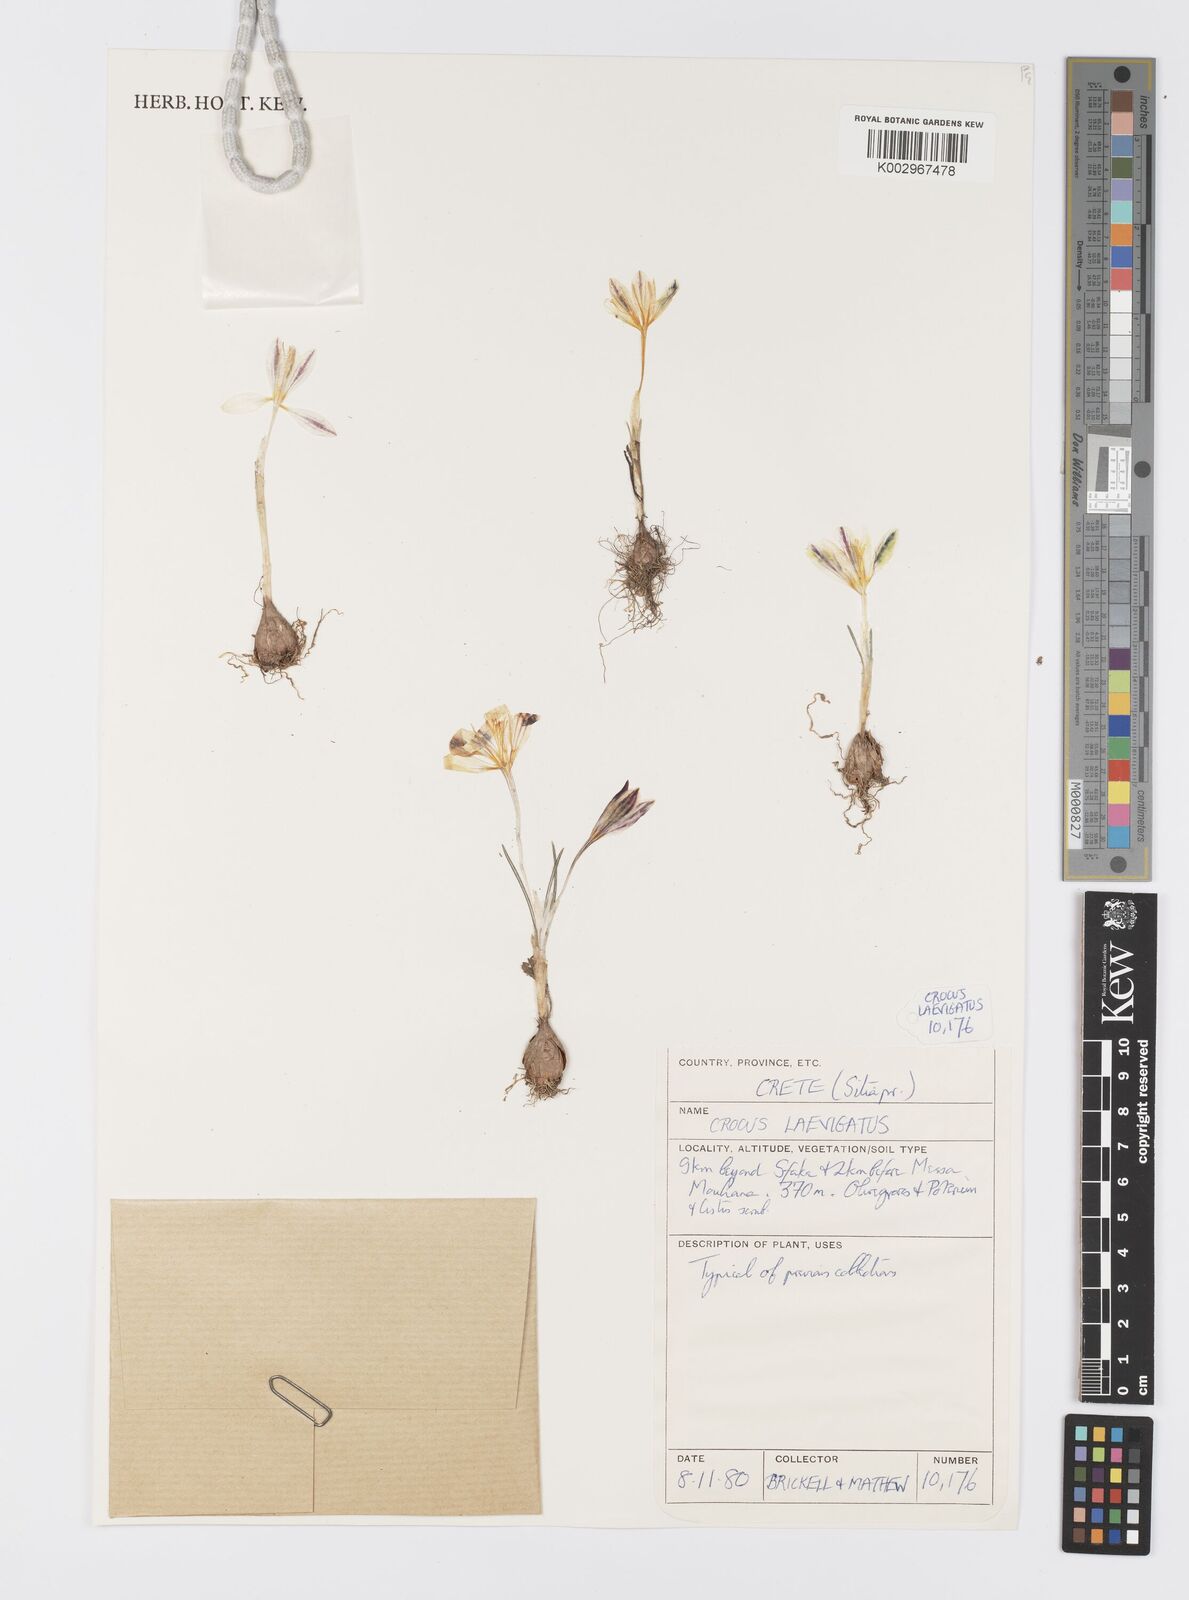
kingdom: Plantae
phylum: Tracheophyta
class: Liliopsida
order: Asparagales
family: Iridaceae
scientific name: Iridaceae
